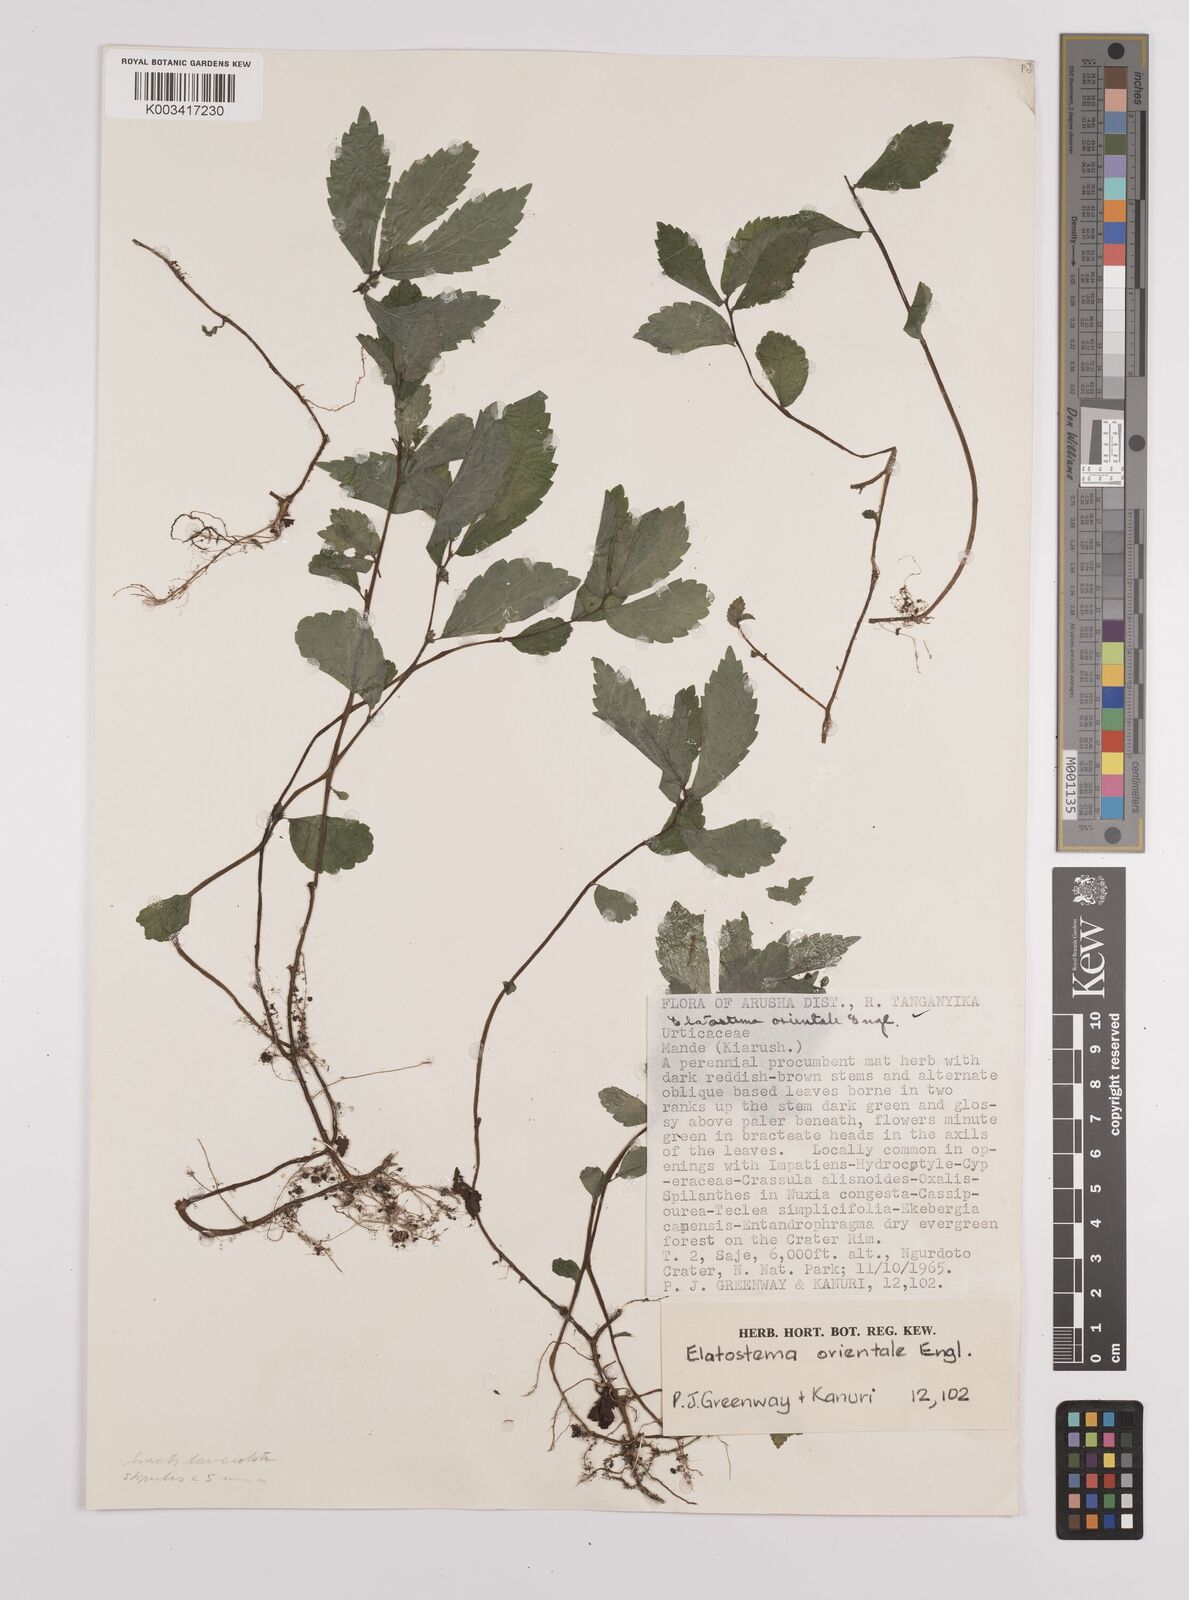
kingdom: Plantae
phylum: Tracheophyta
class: Magnoliopsida
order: Rosales
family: Urticaceae
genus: Elatostema
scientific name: Elatostema monticola
